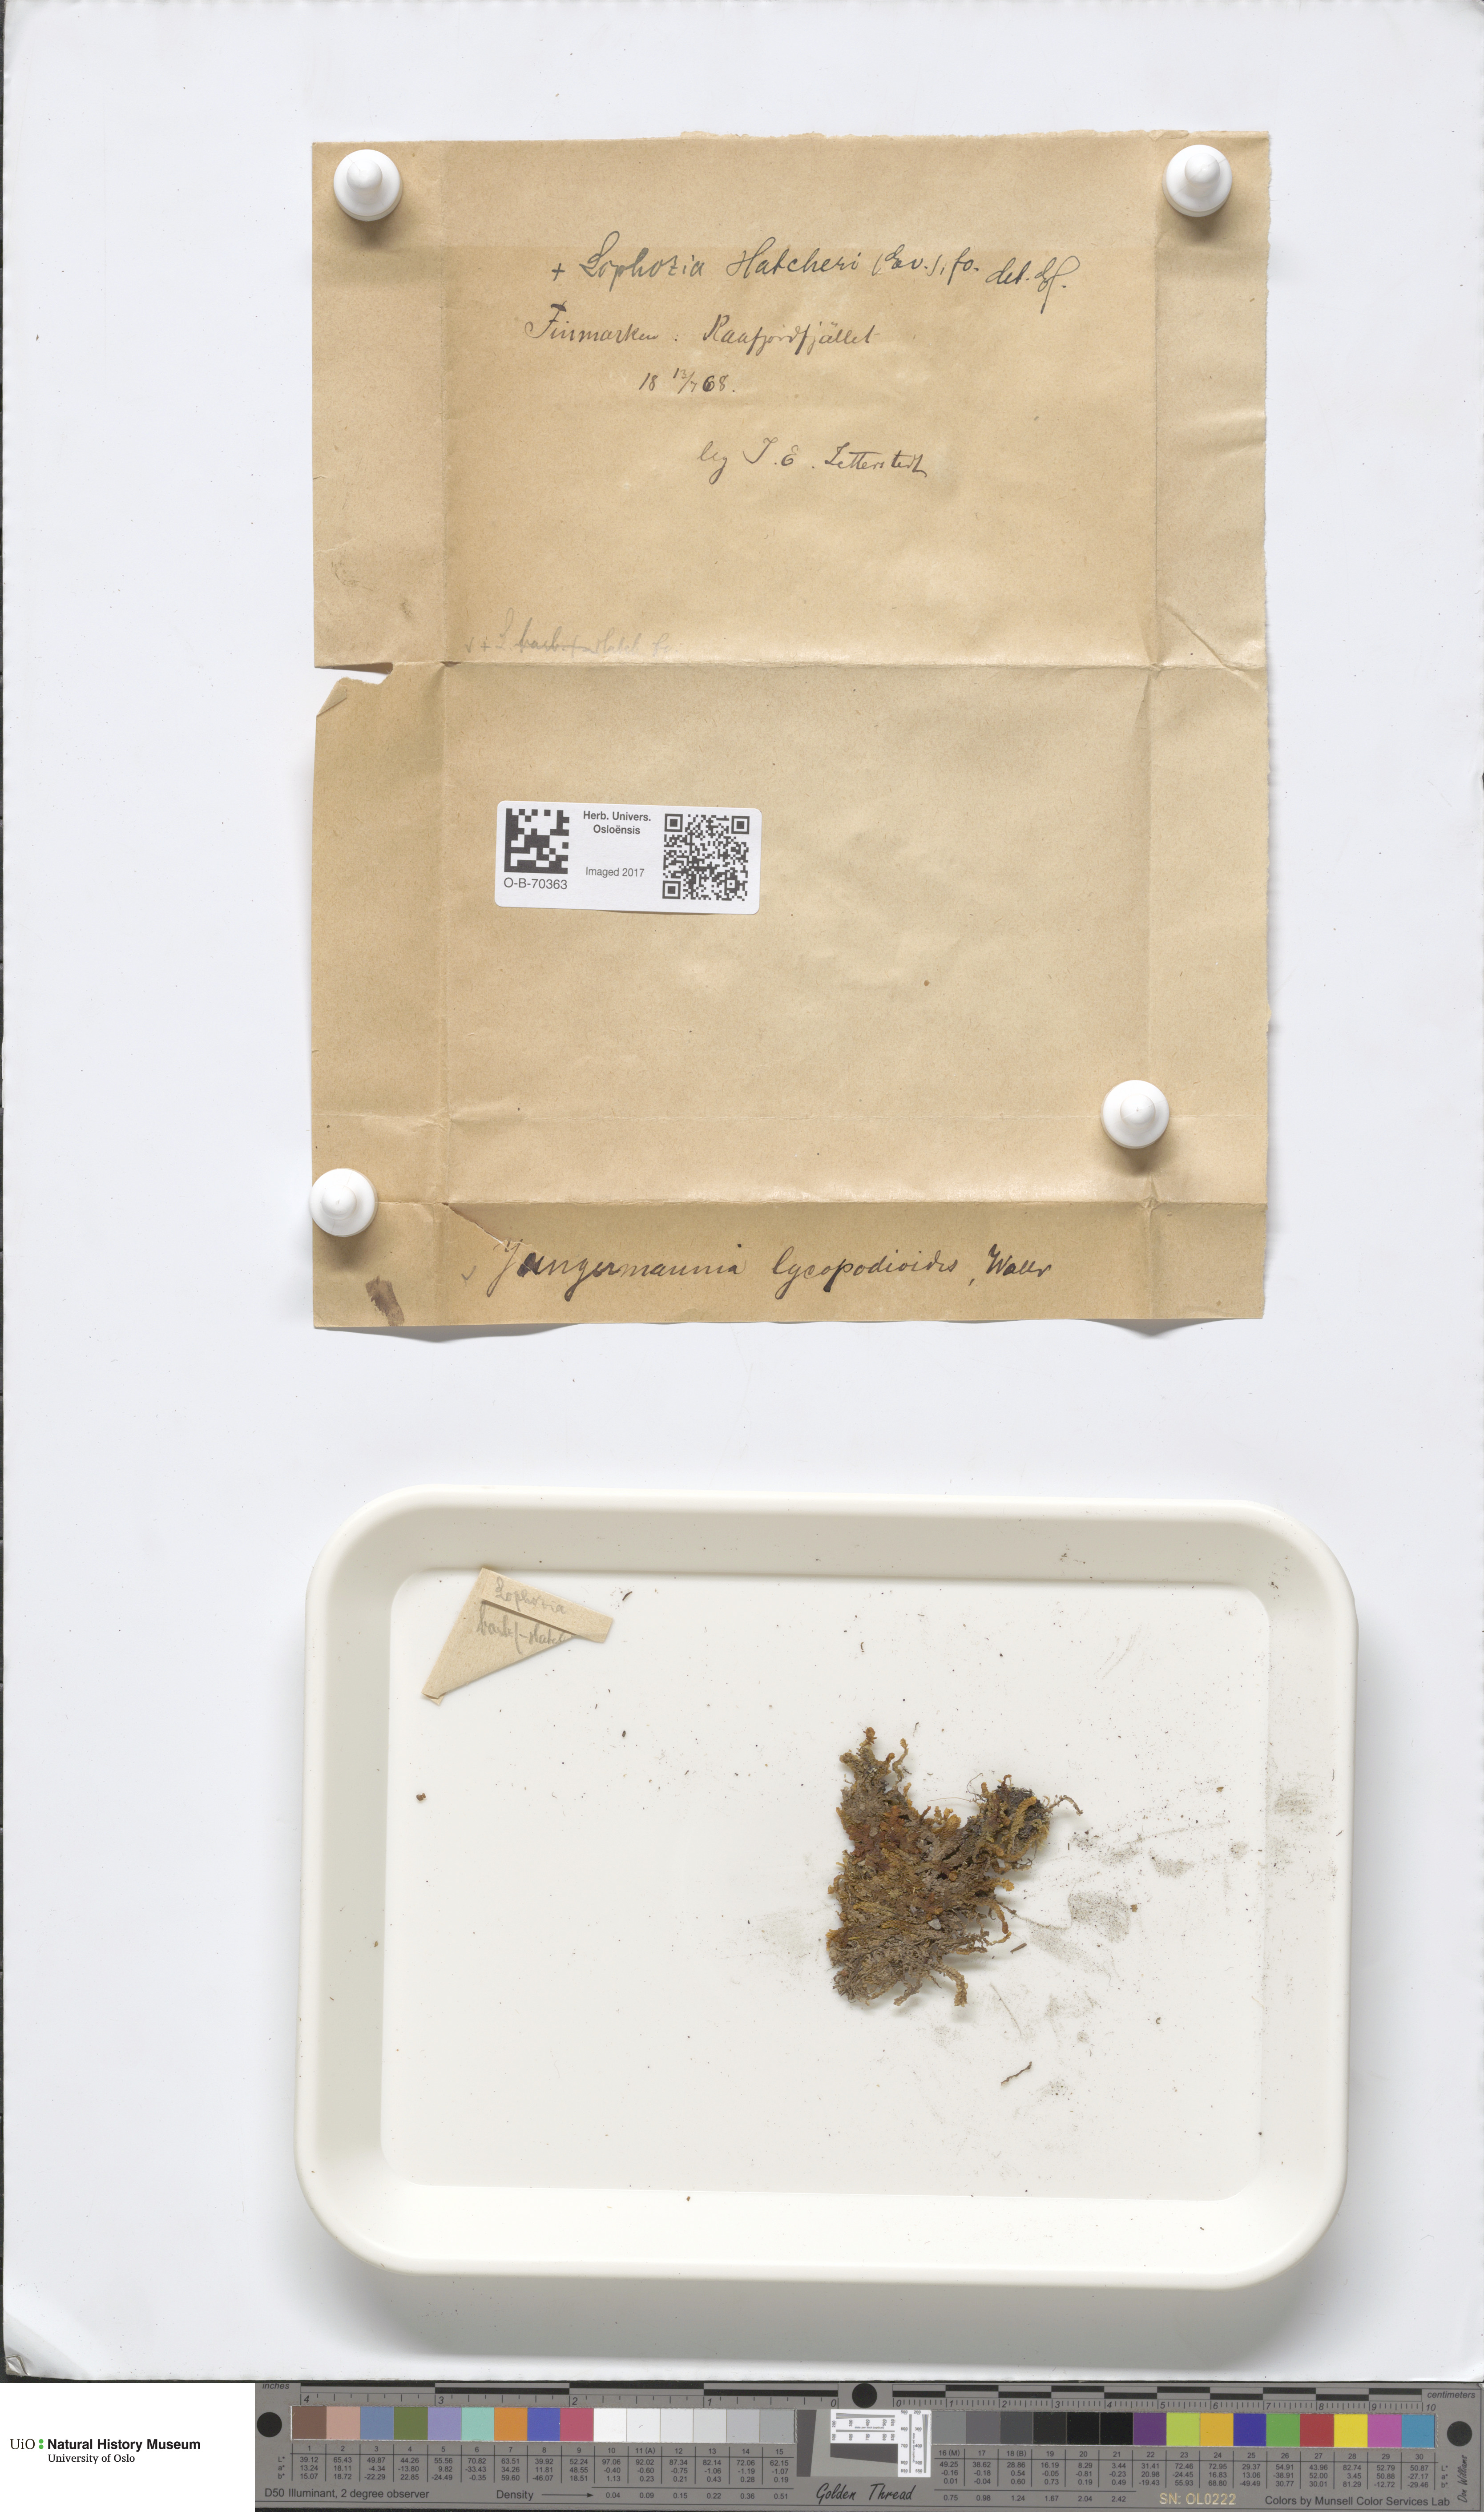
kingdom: Plantae
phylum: Marchantiophyta
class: Jungermanniopsida
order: Jungermanniales
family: Anastrophyllaceae
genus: Schljakovia
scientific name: Schljakovia kunzeana
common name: Kunze's pawwort
